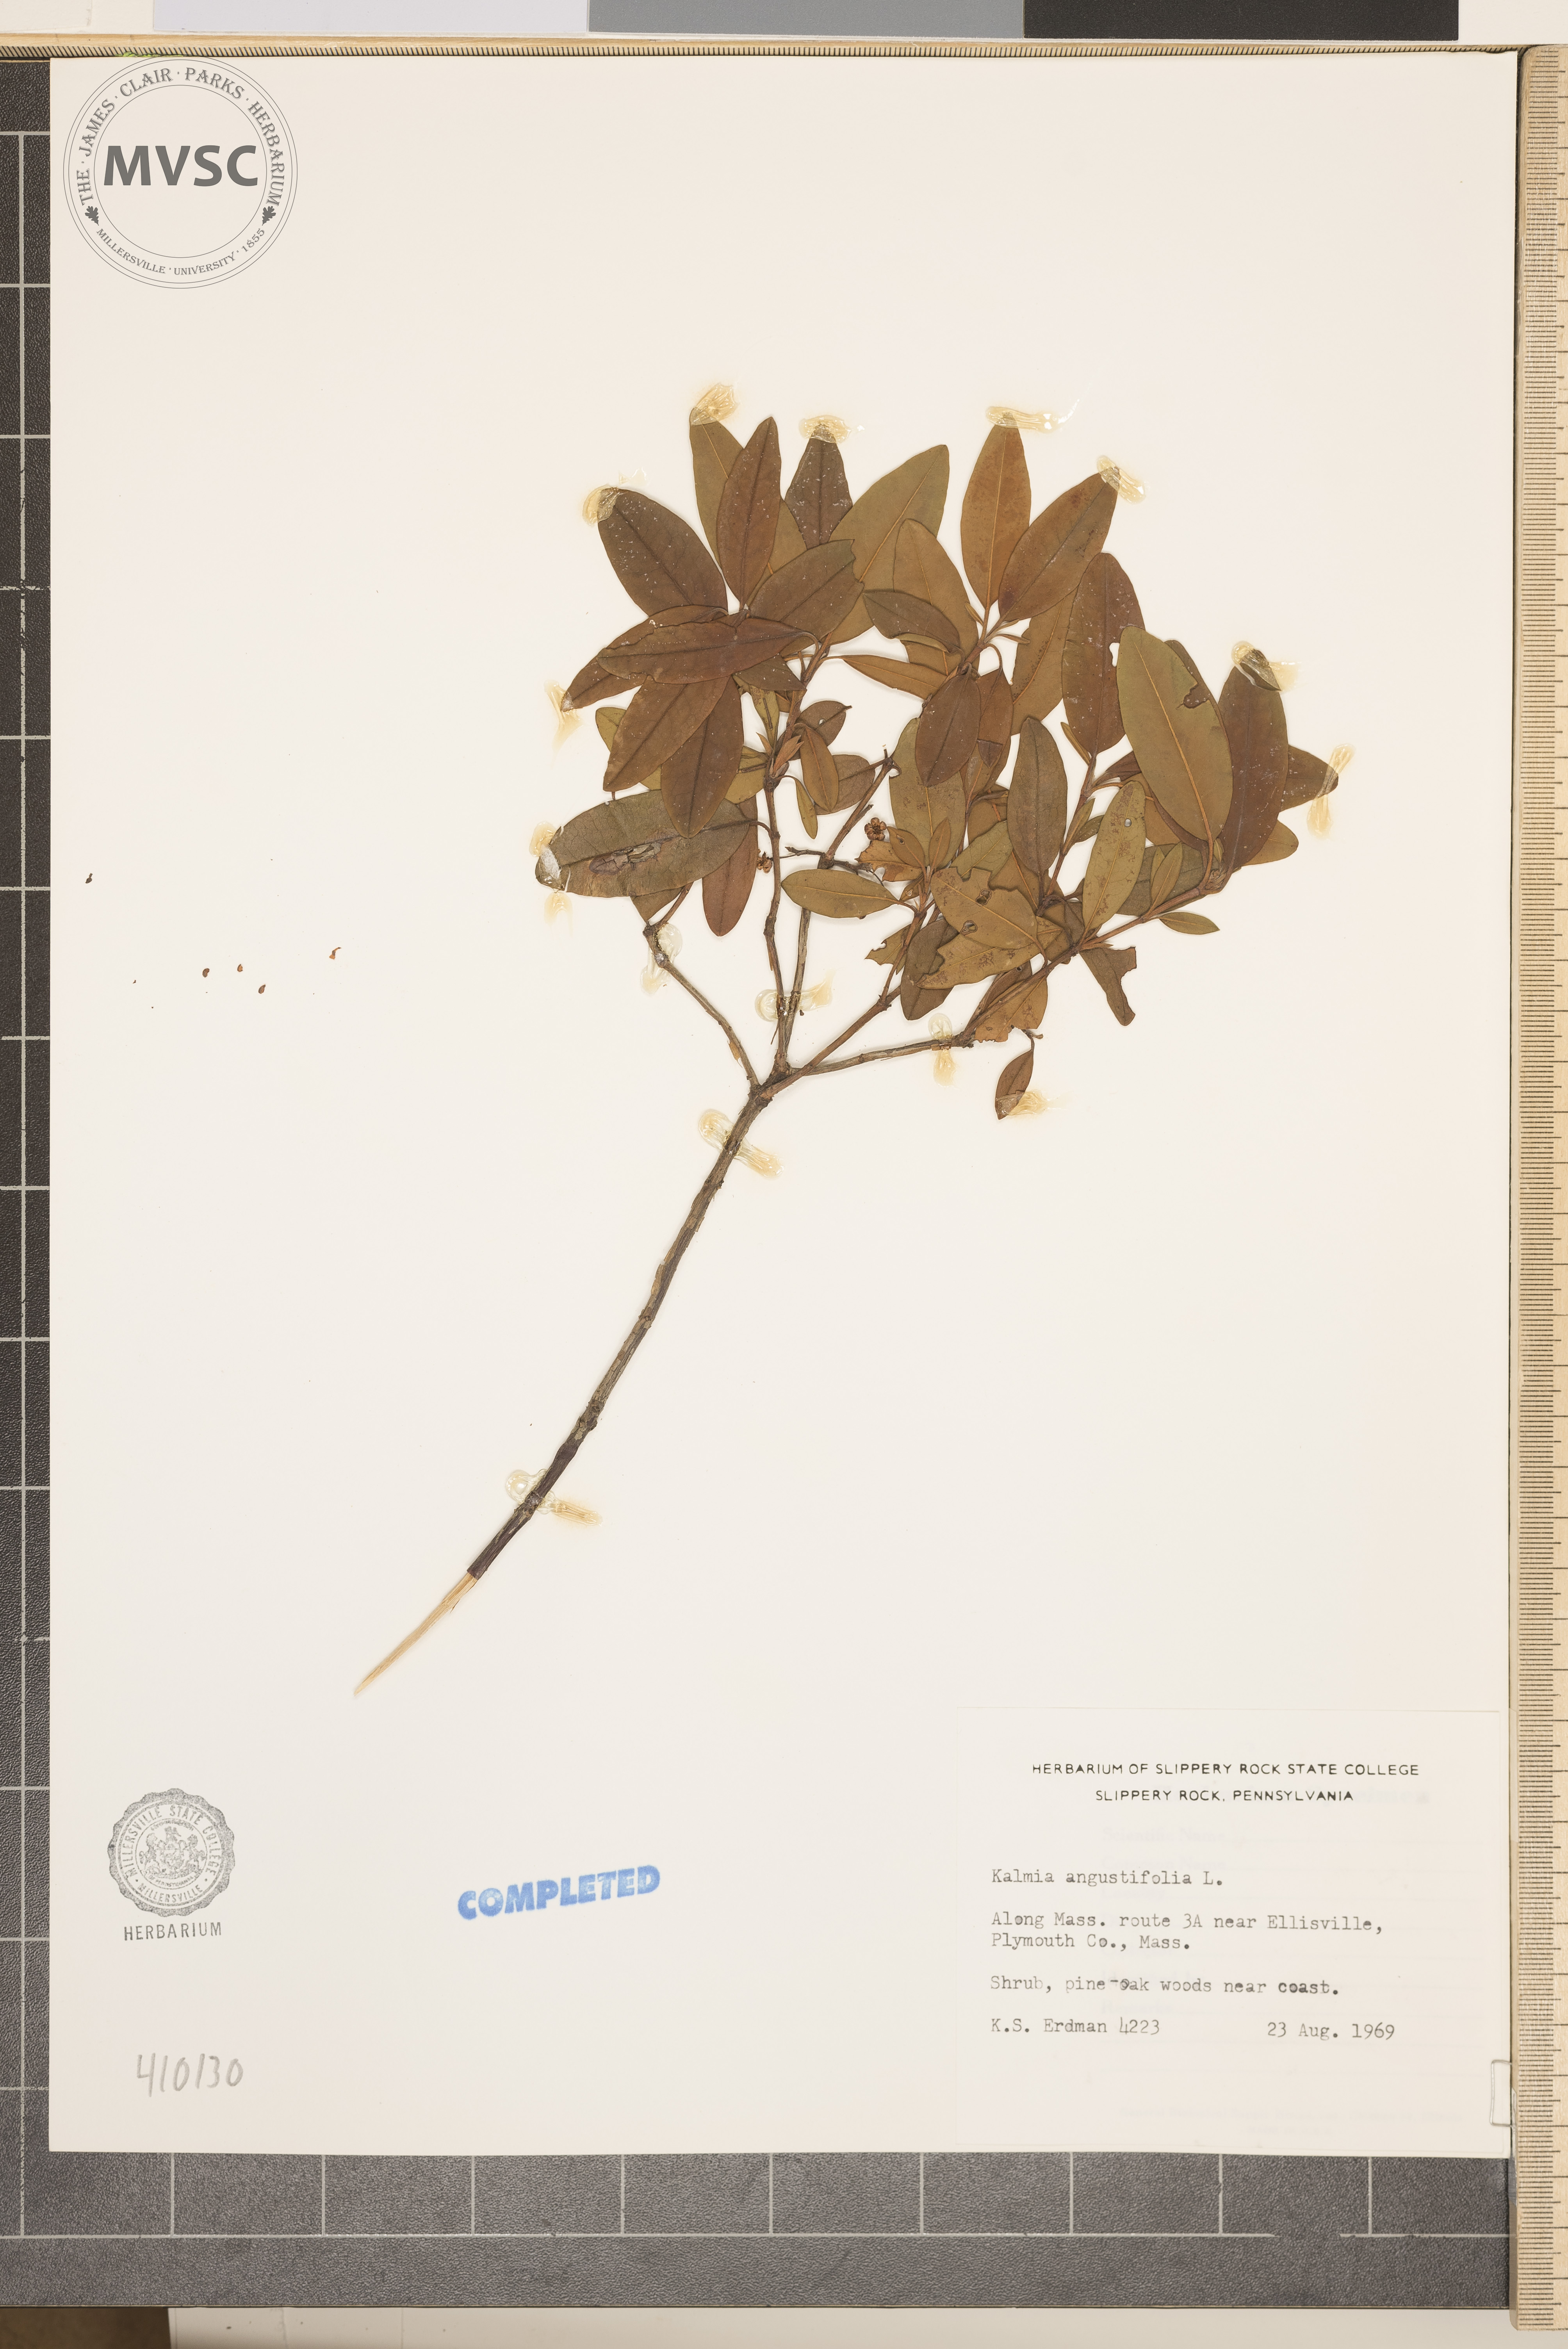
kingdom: Plantae
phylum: Tracheophyta
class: Magnoliopsida
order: Ericales
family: Ericaceae
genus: Kalmia
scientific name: Kalmia angustifolia
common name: Sheep-laurel
